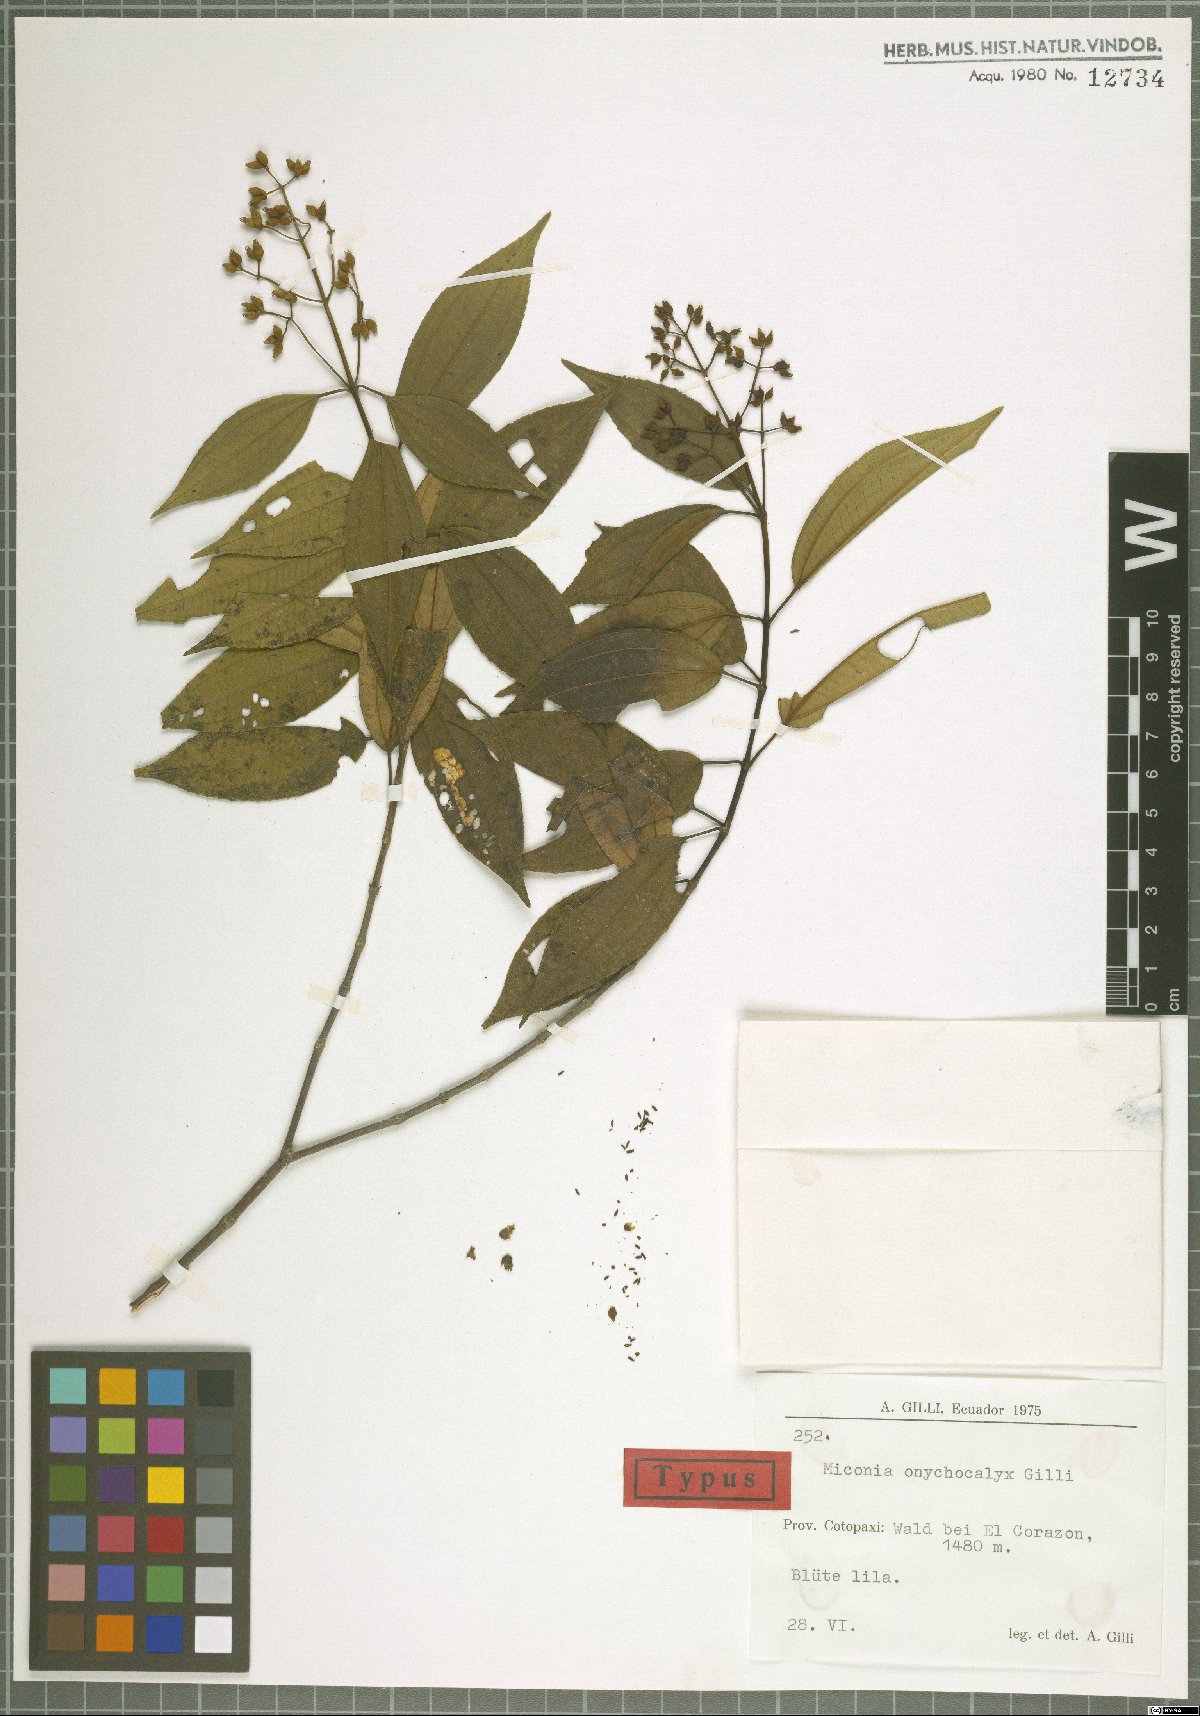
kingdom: Plantae
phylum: Tracheophyta
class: Magnoliopsida
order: Myrtales
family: Melastomataceae
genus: Miconia
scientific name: Miconia onychocalyx
